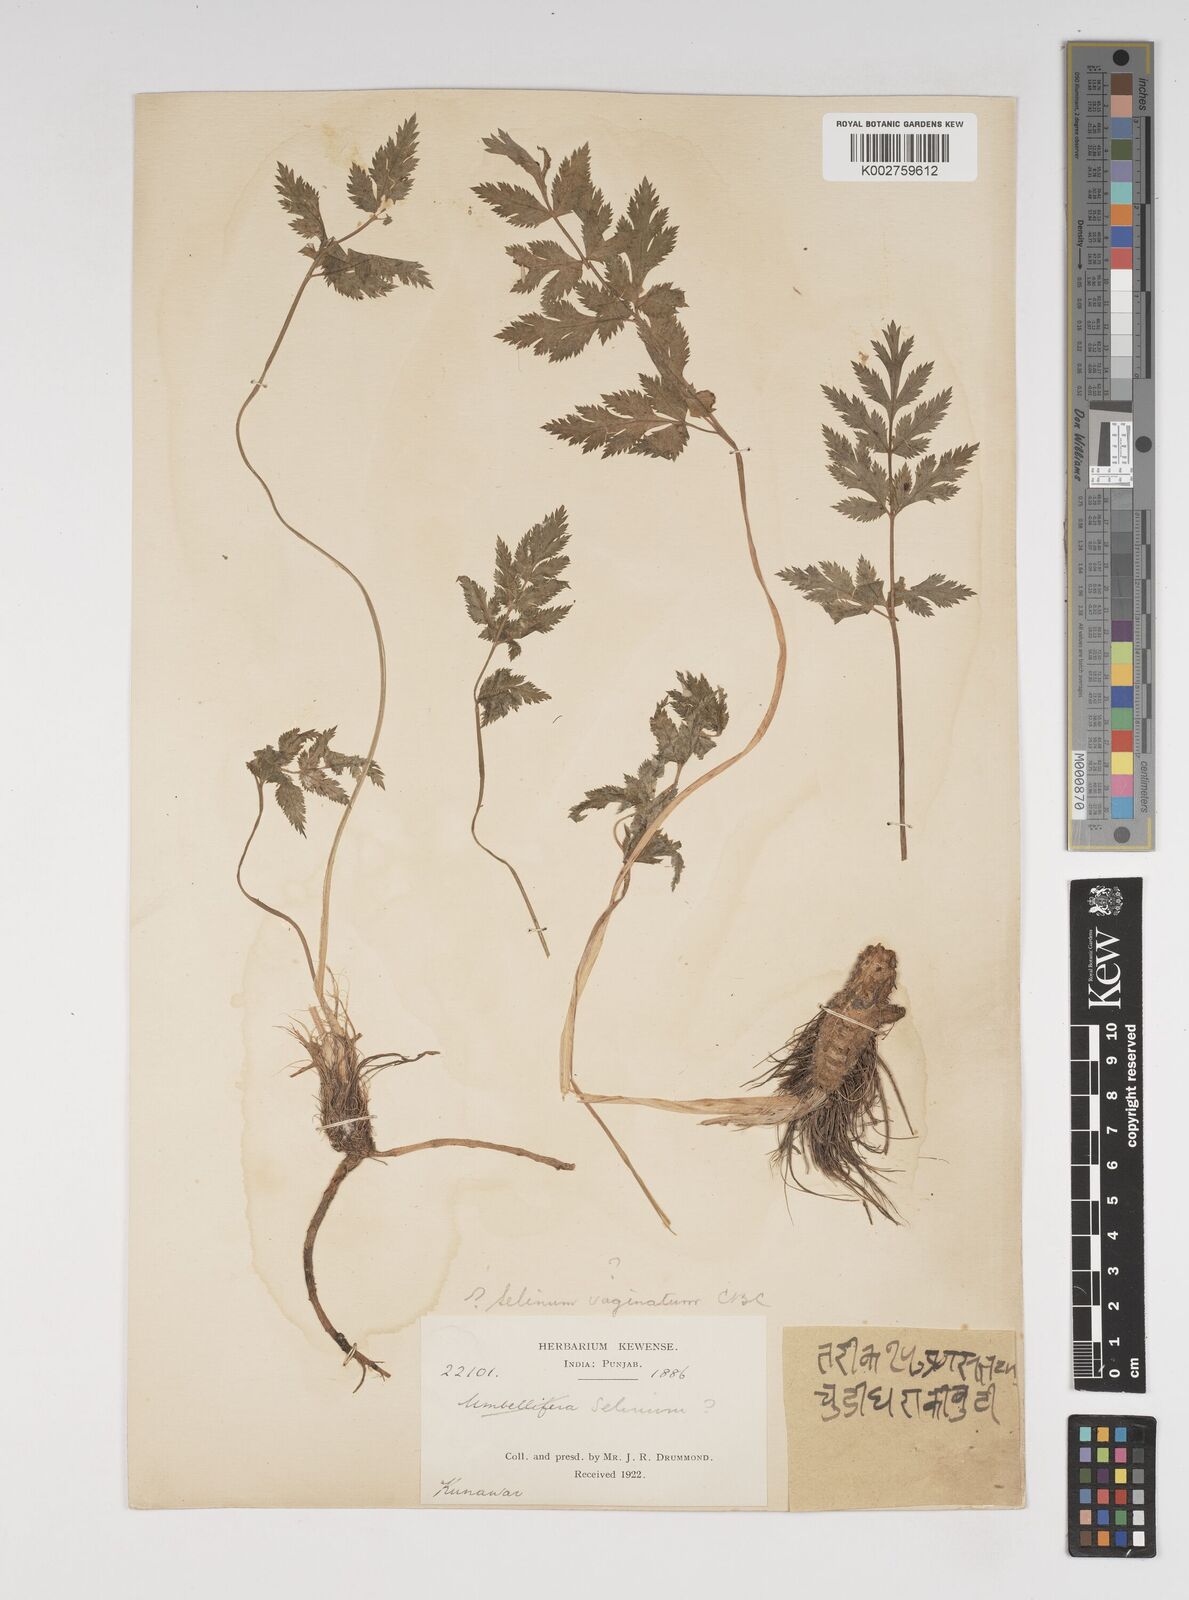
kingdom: Plantae
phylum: Tracheophyta
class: Magnoliopsida
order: Apiales
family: Apiaceae
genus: Selinum
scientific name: Selinum vaginatum
